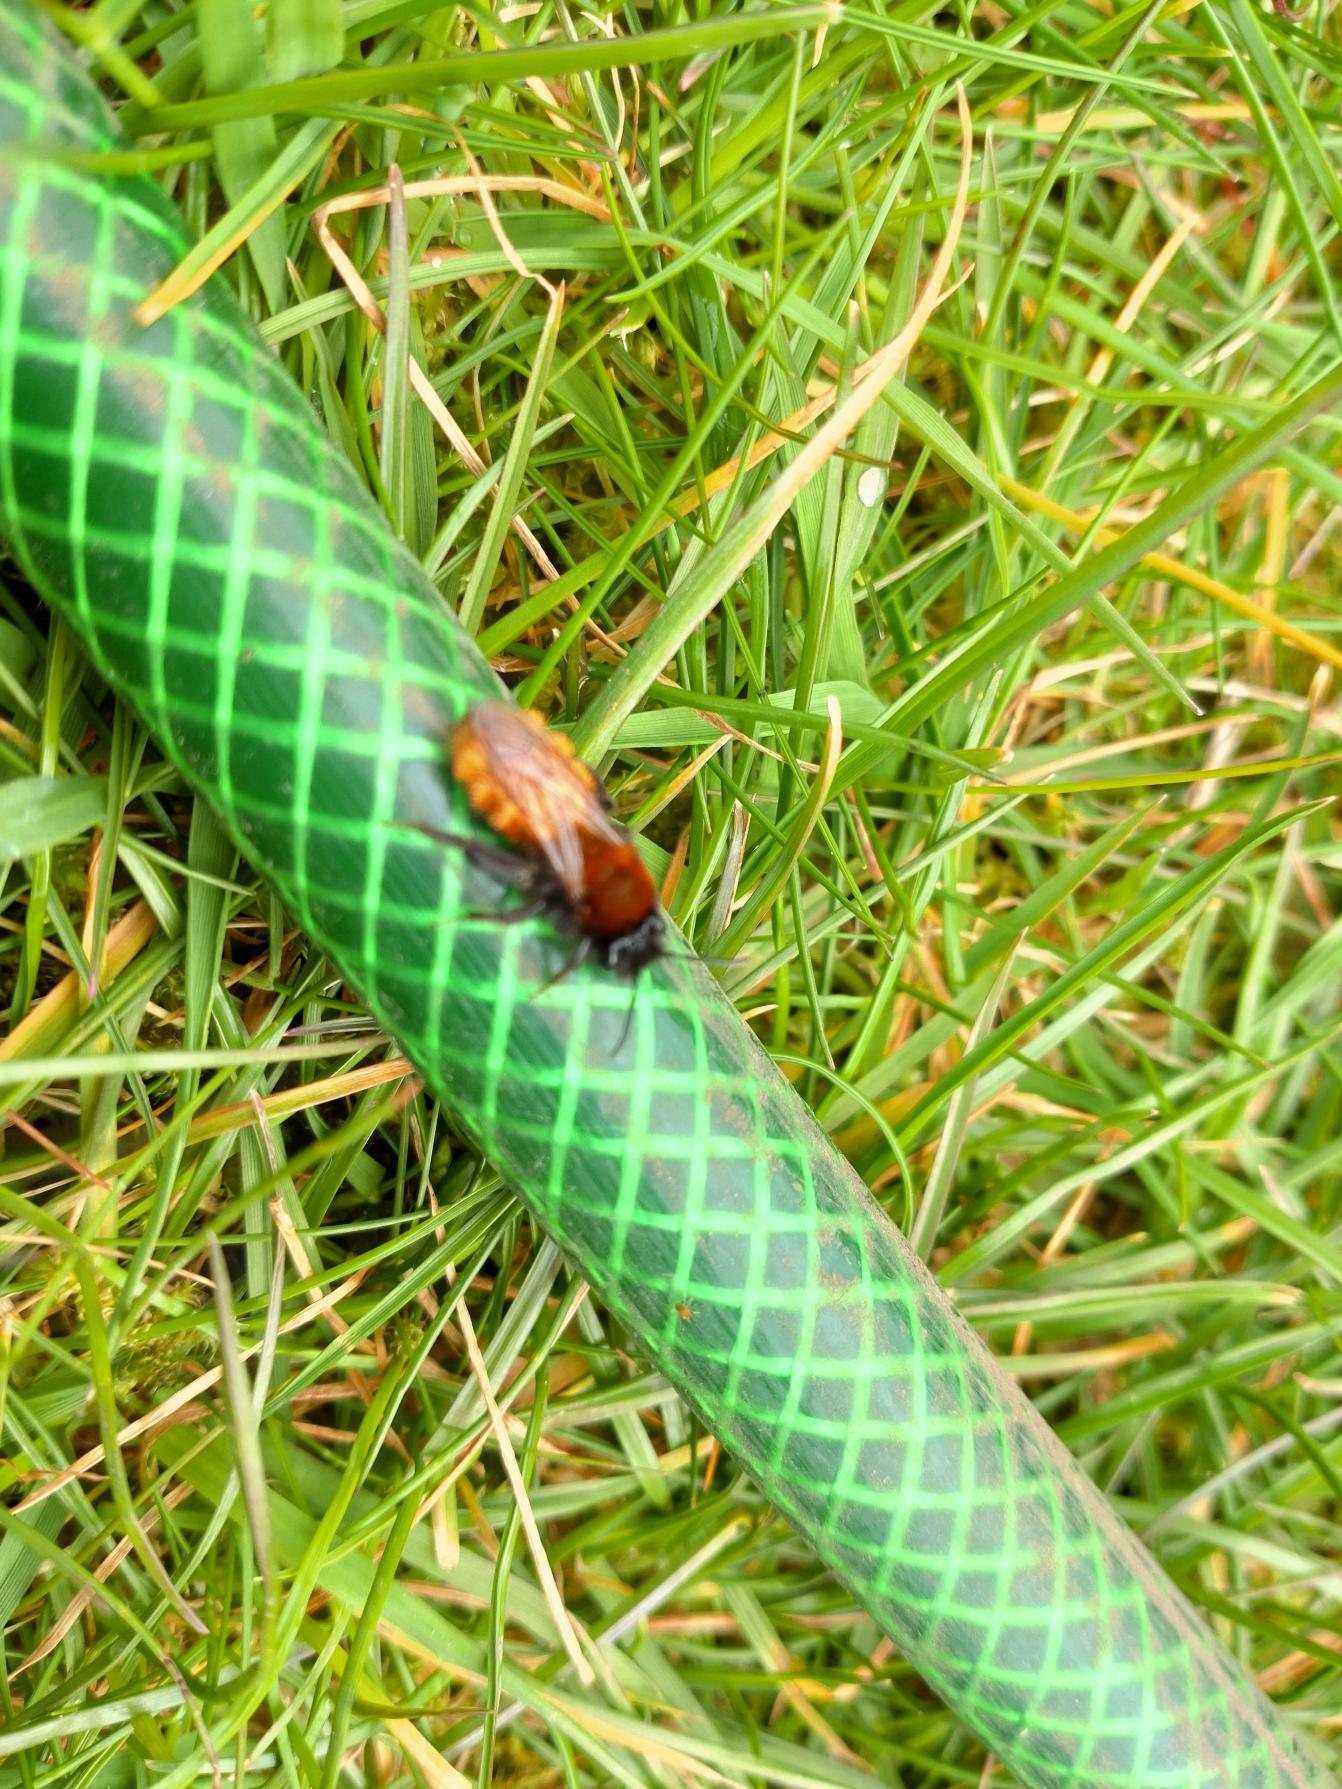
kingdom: Animalia
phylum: Arthropoda
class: Insecta
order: Hymenoptera
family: Andrenidae
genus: Andrena
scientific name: Andrena fulva
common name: Rødpelset jordbi
